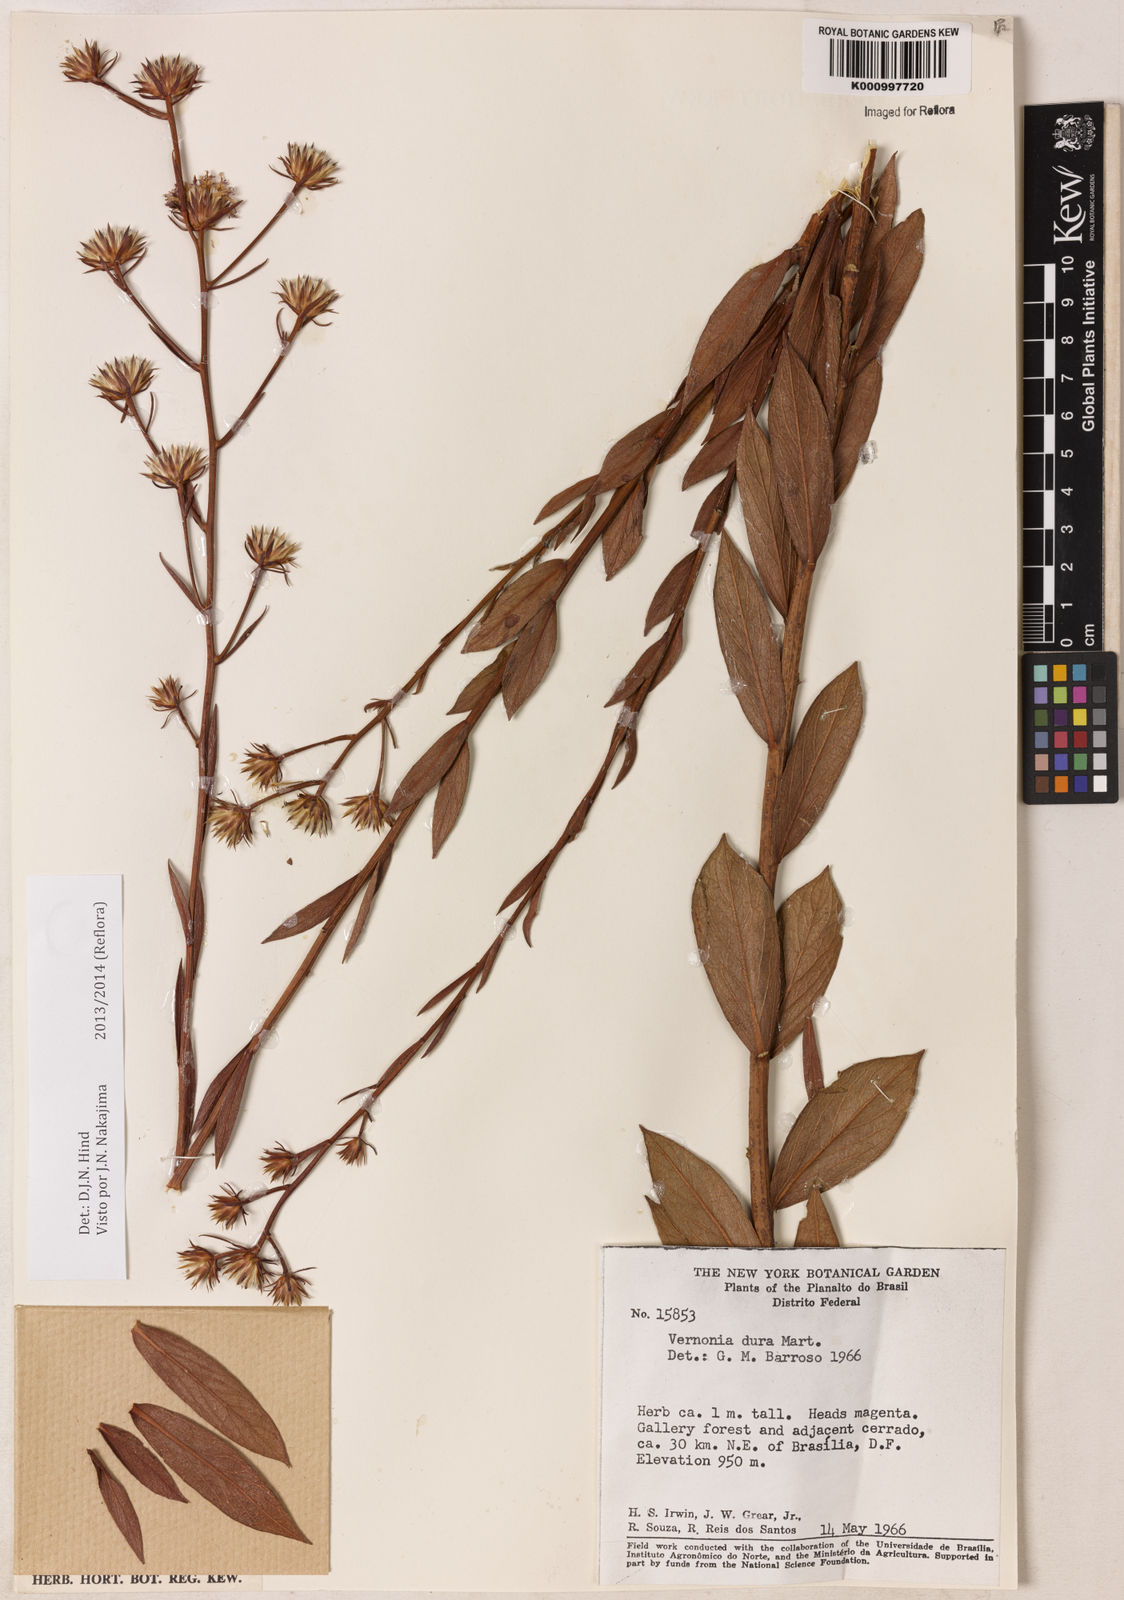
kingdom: Plantae
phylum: Tracheophyta
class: Magnoliopsida
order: Asterales
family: Asteraceae
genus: Lessingianthus
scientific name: Lessingianthus durus
